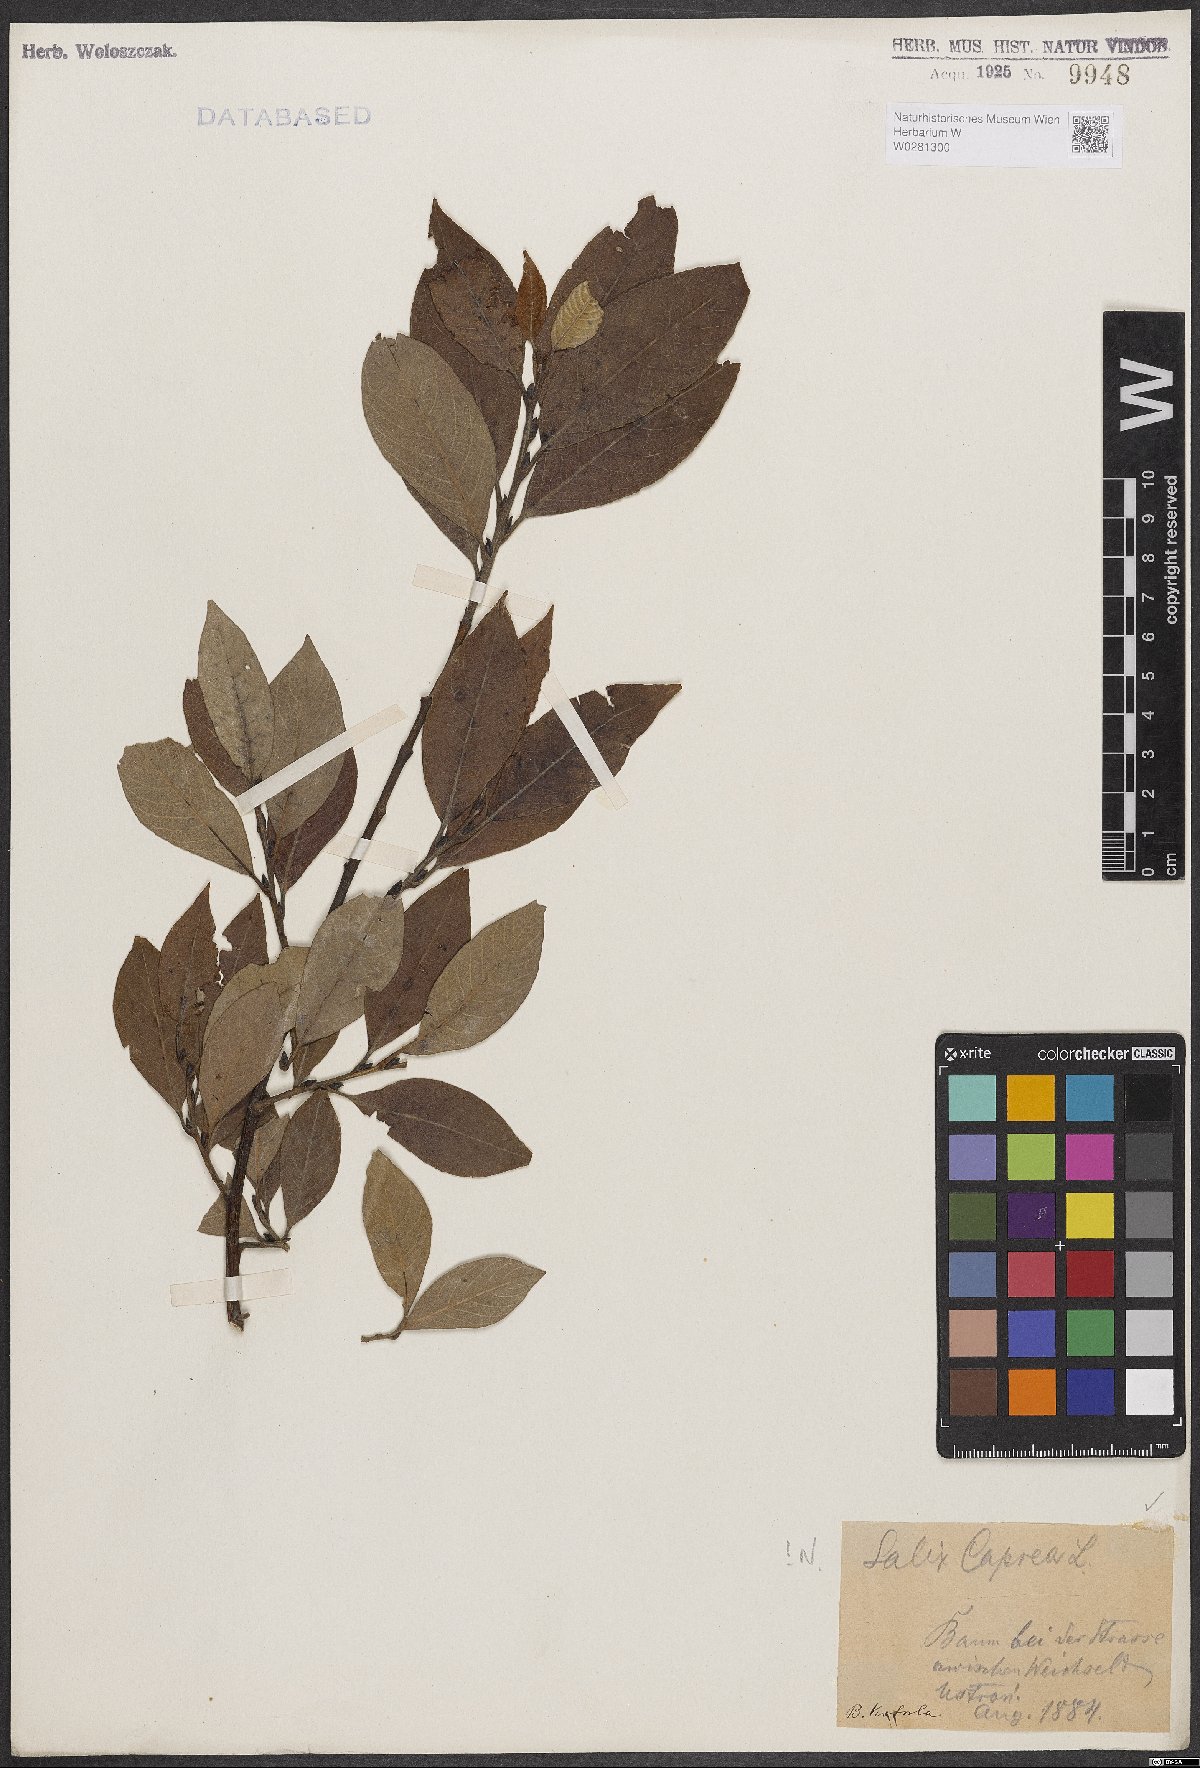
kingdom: Plantae
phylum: Tracheophyta
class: Magnoliopsida
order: Malpighiales
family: Salicaceae
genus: Salix
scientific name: Salix caprea
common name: Goat willow
